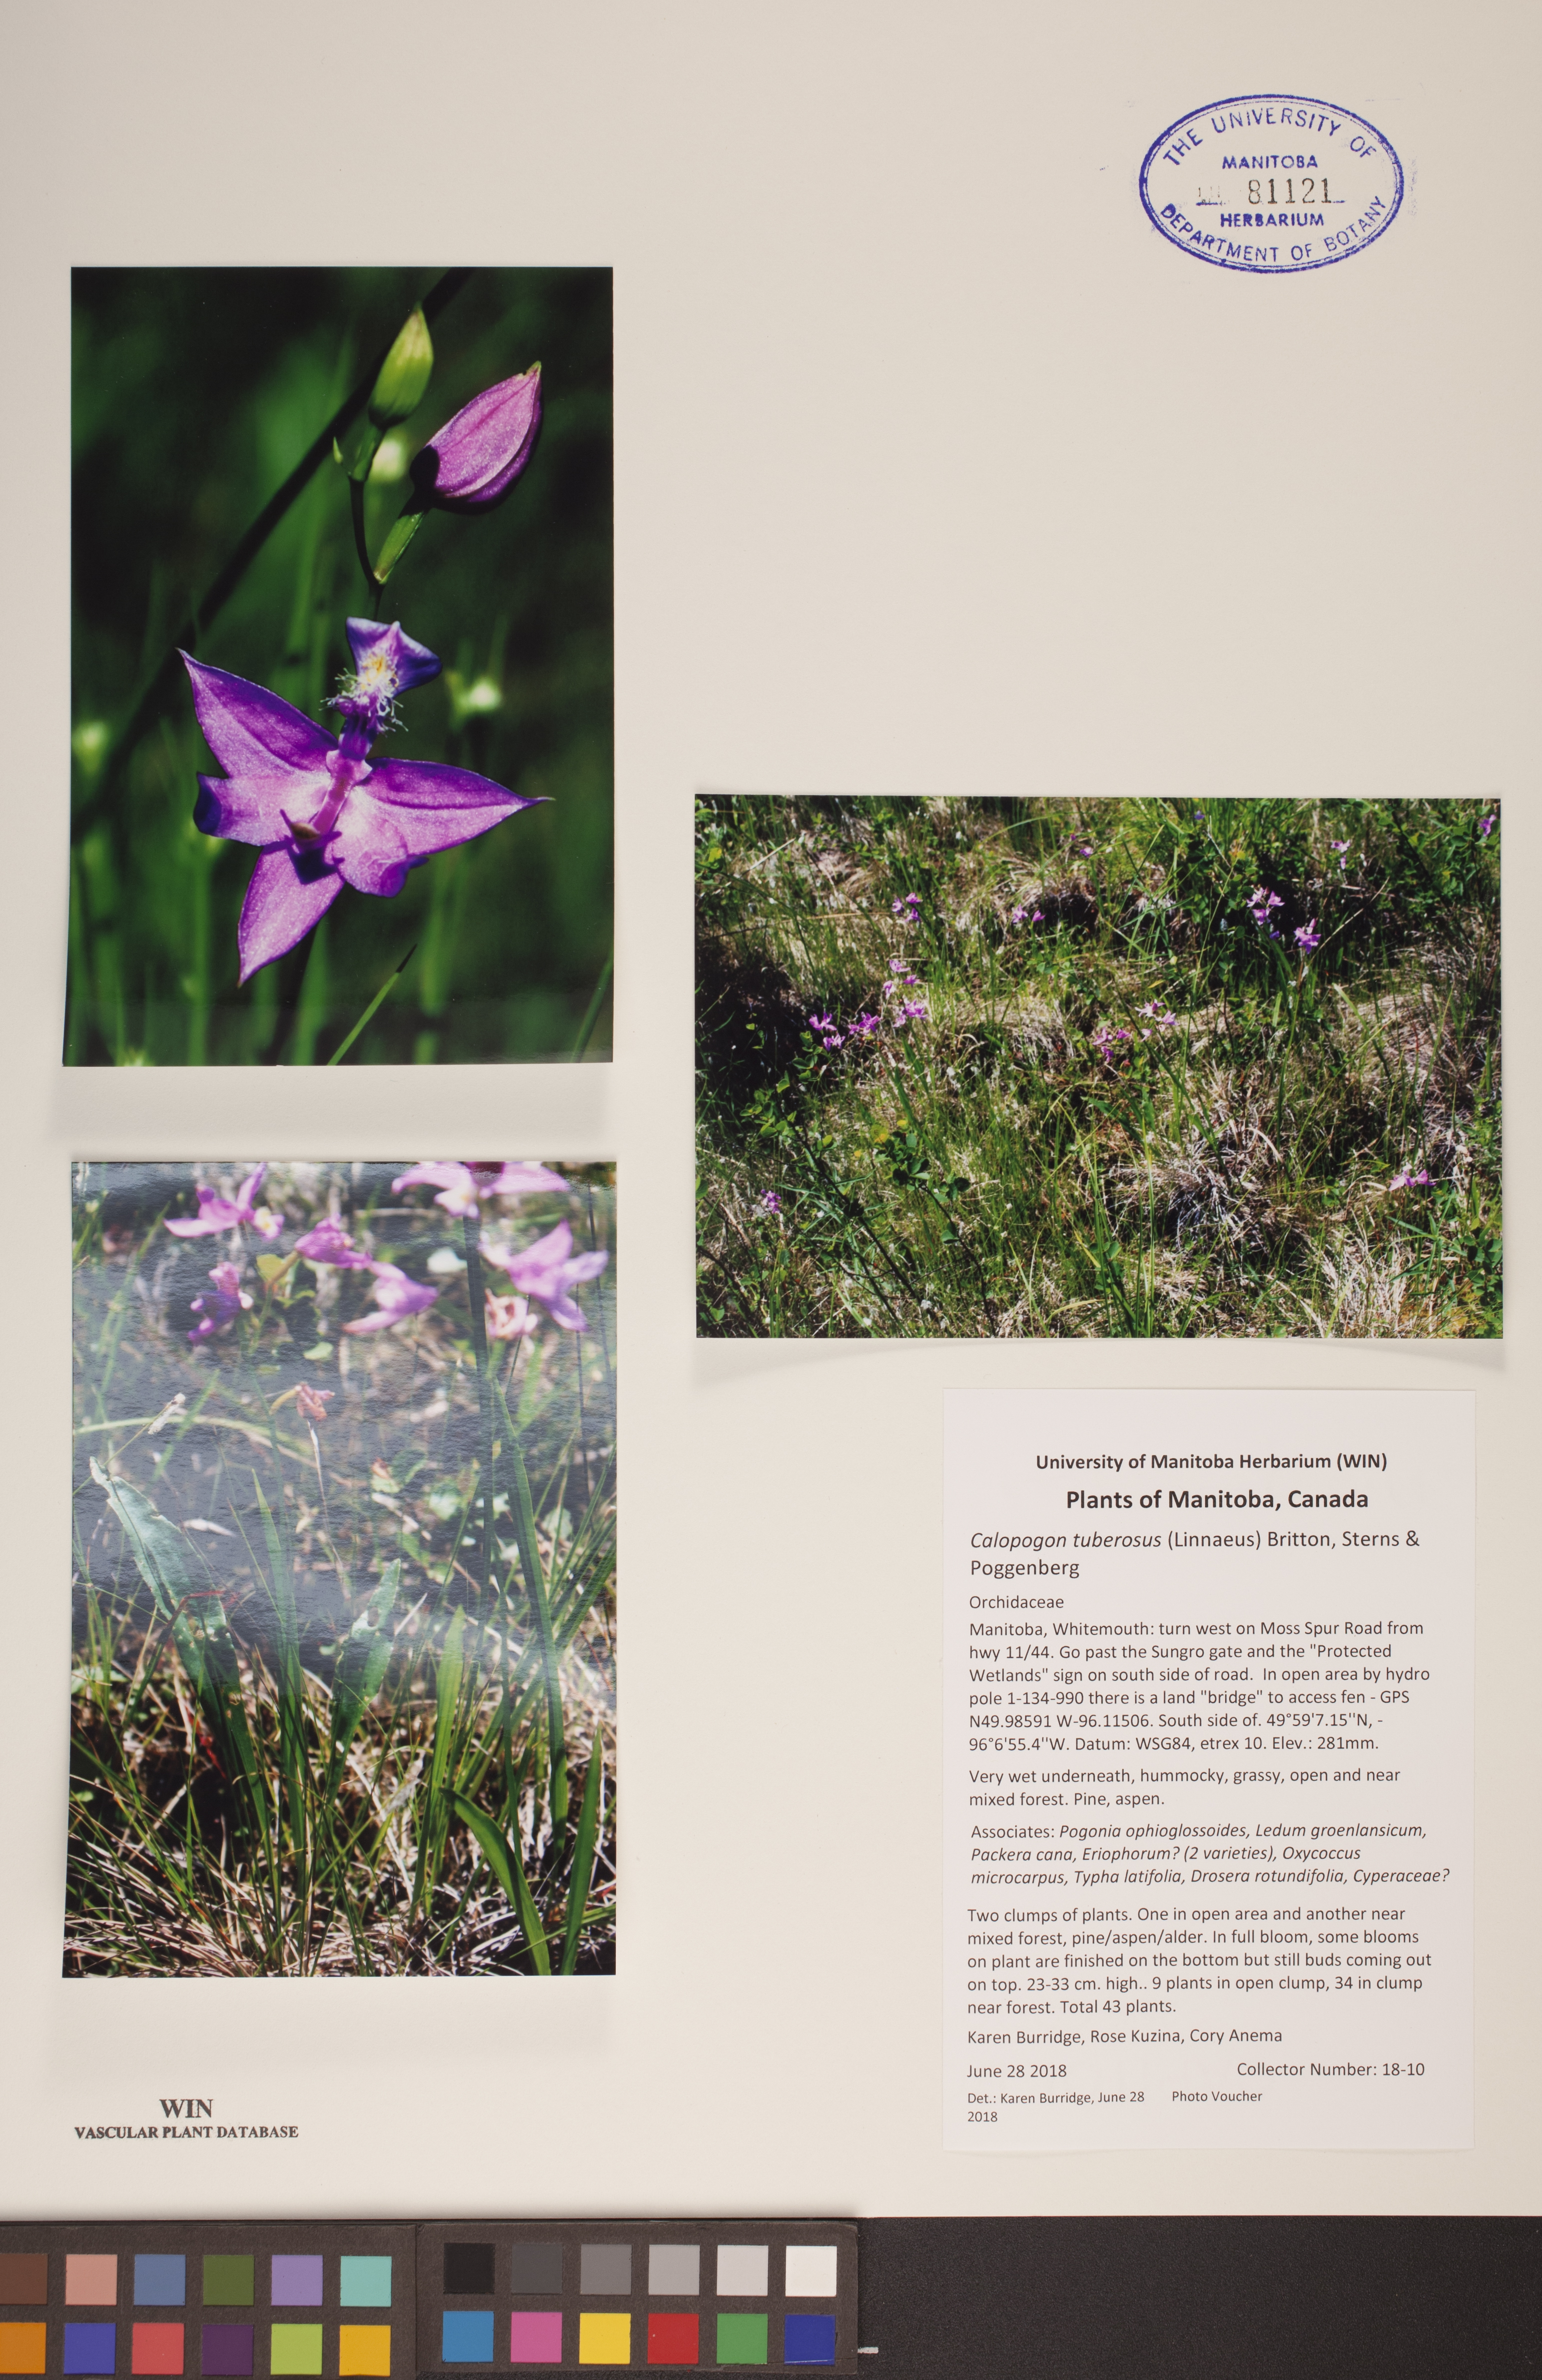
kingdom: Plantae
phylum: Tracheophyta
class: Liliopsida
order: Asparagales
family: Orchidaceae
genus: Calopogon
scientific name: Calopogon tuberosus
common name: Grass-pink
